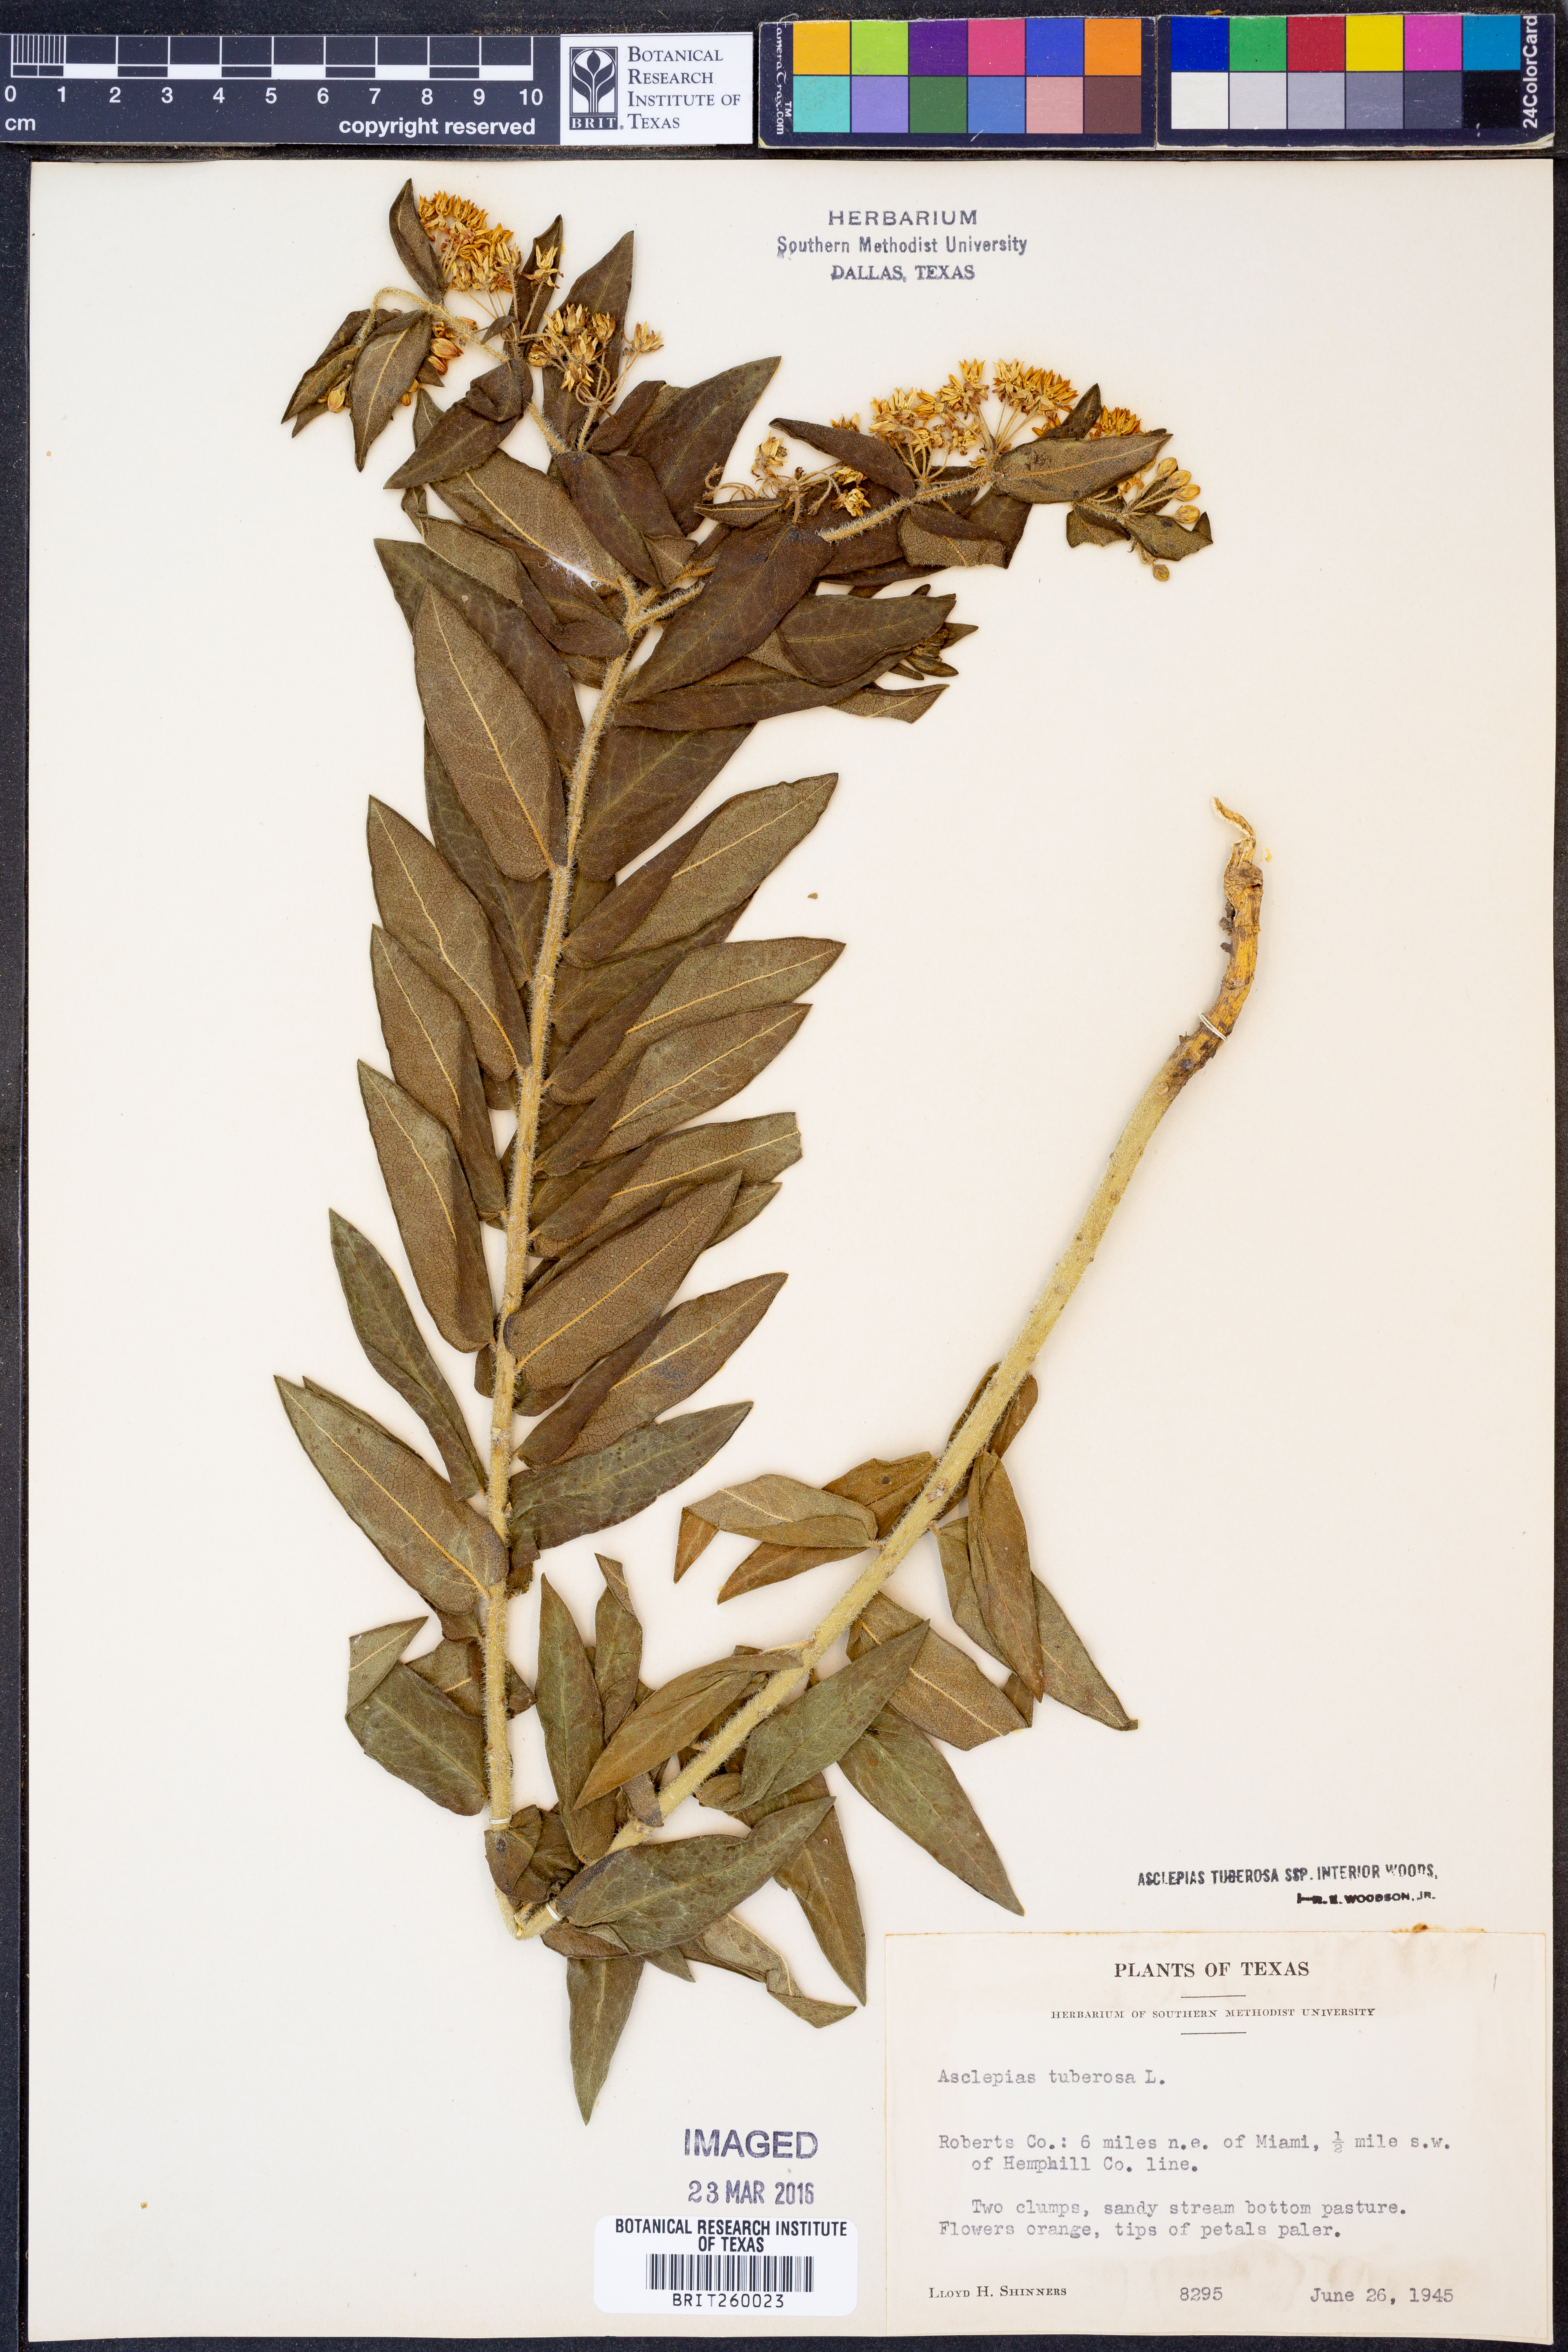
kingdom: Plantae
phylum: Tracheophyta
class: Magnoliopsida
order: Gentianales
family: Apocynaceae
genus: Asclepias
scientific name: Asclepias tuberosa
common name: Butterfly milkweed
